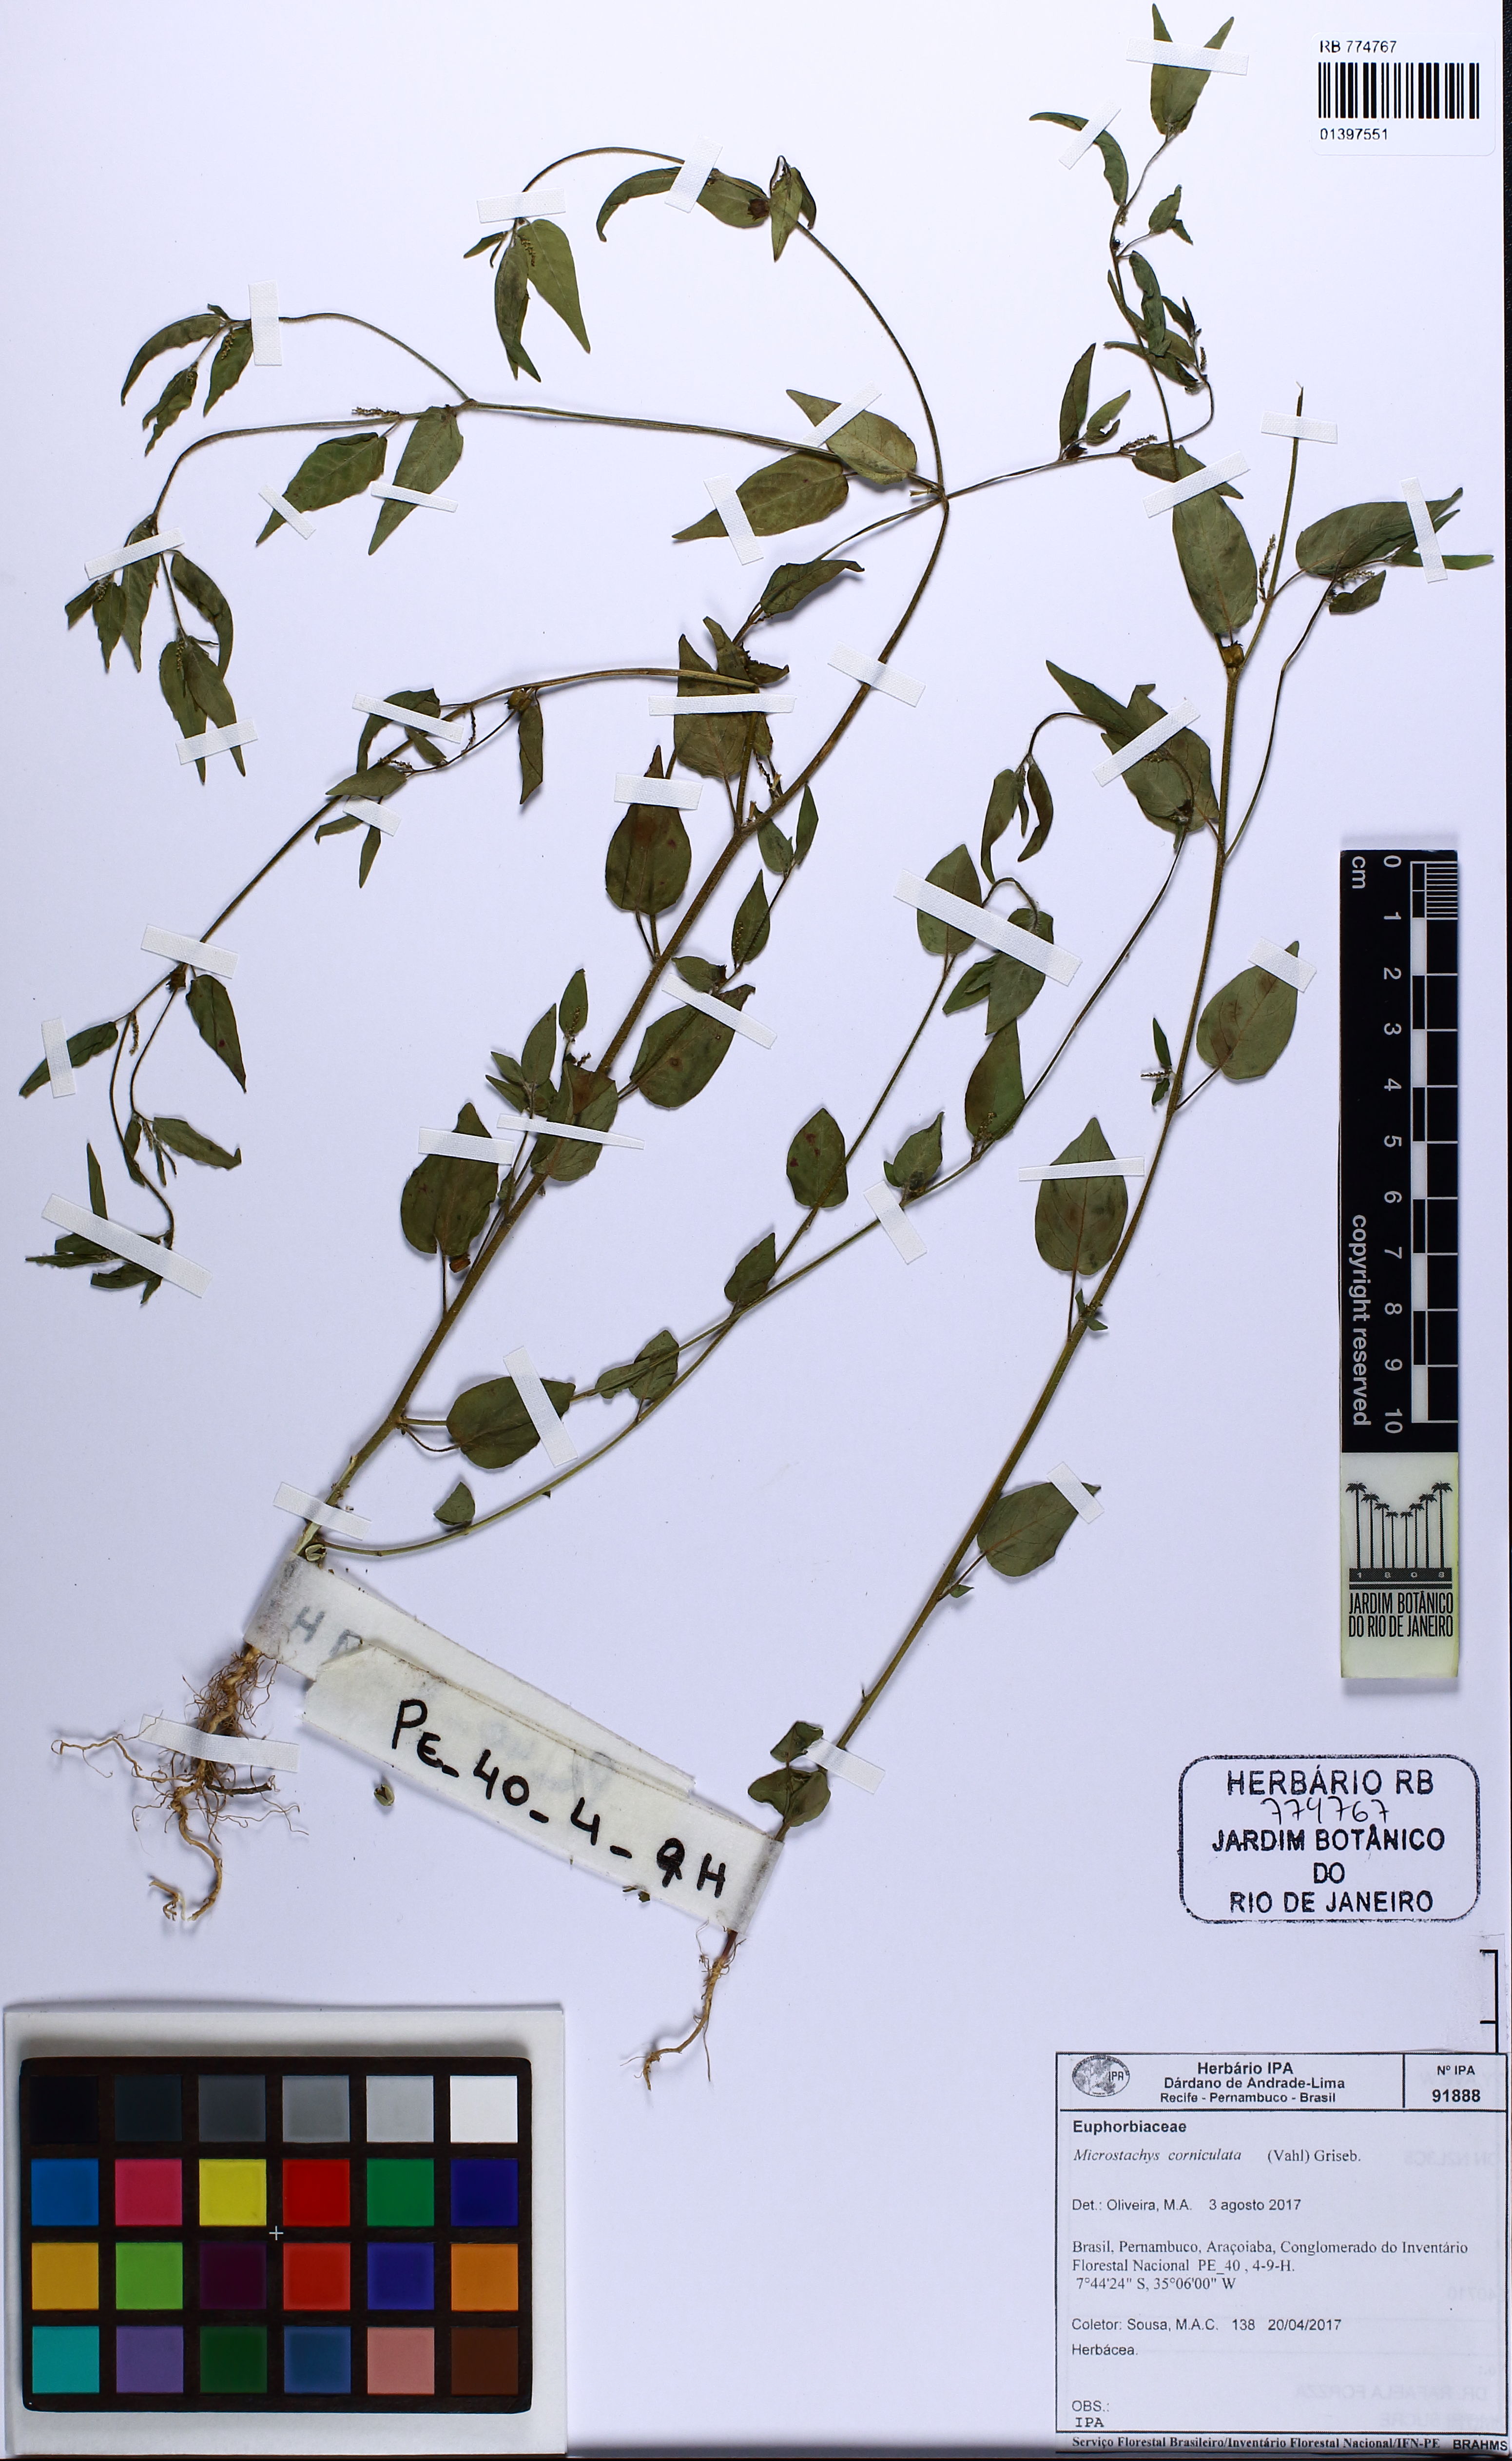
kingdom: Plantae
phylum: Tracheophyta
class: Magnoliopsida
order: Malpighiales
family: Euphorbiaceae
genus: Microstachys
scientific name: Microstachys corniculata
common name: Hato tejas
